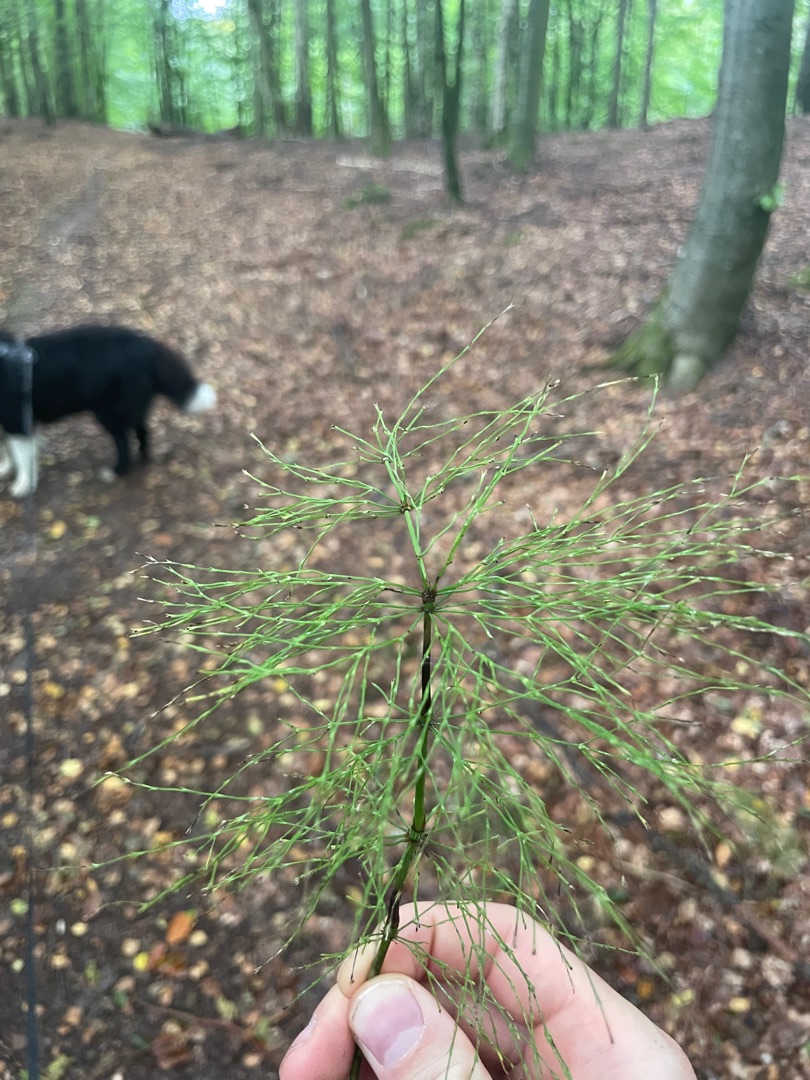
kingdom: Plantae
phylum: Tracheophyta
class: Polypodiopsida
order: Equisetales
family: Equisetaceae
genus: Equisetum
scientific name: Equisetum sylvaticum
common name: Skov-padderok
